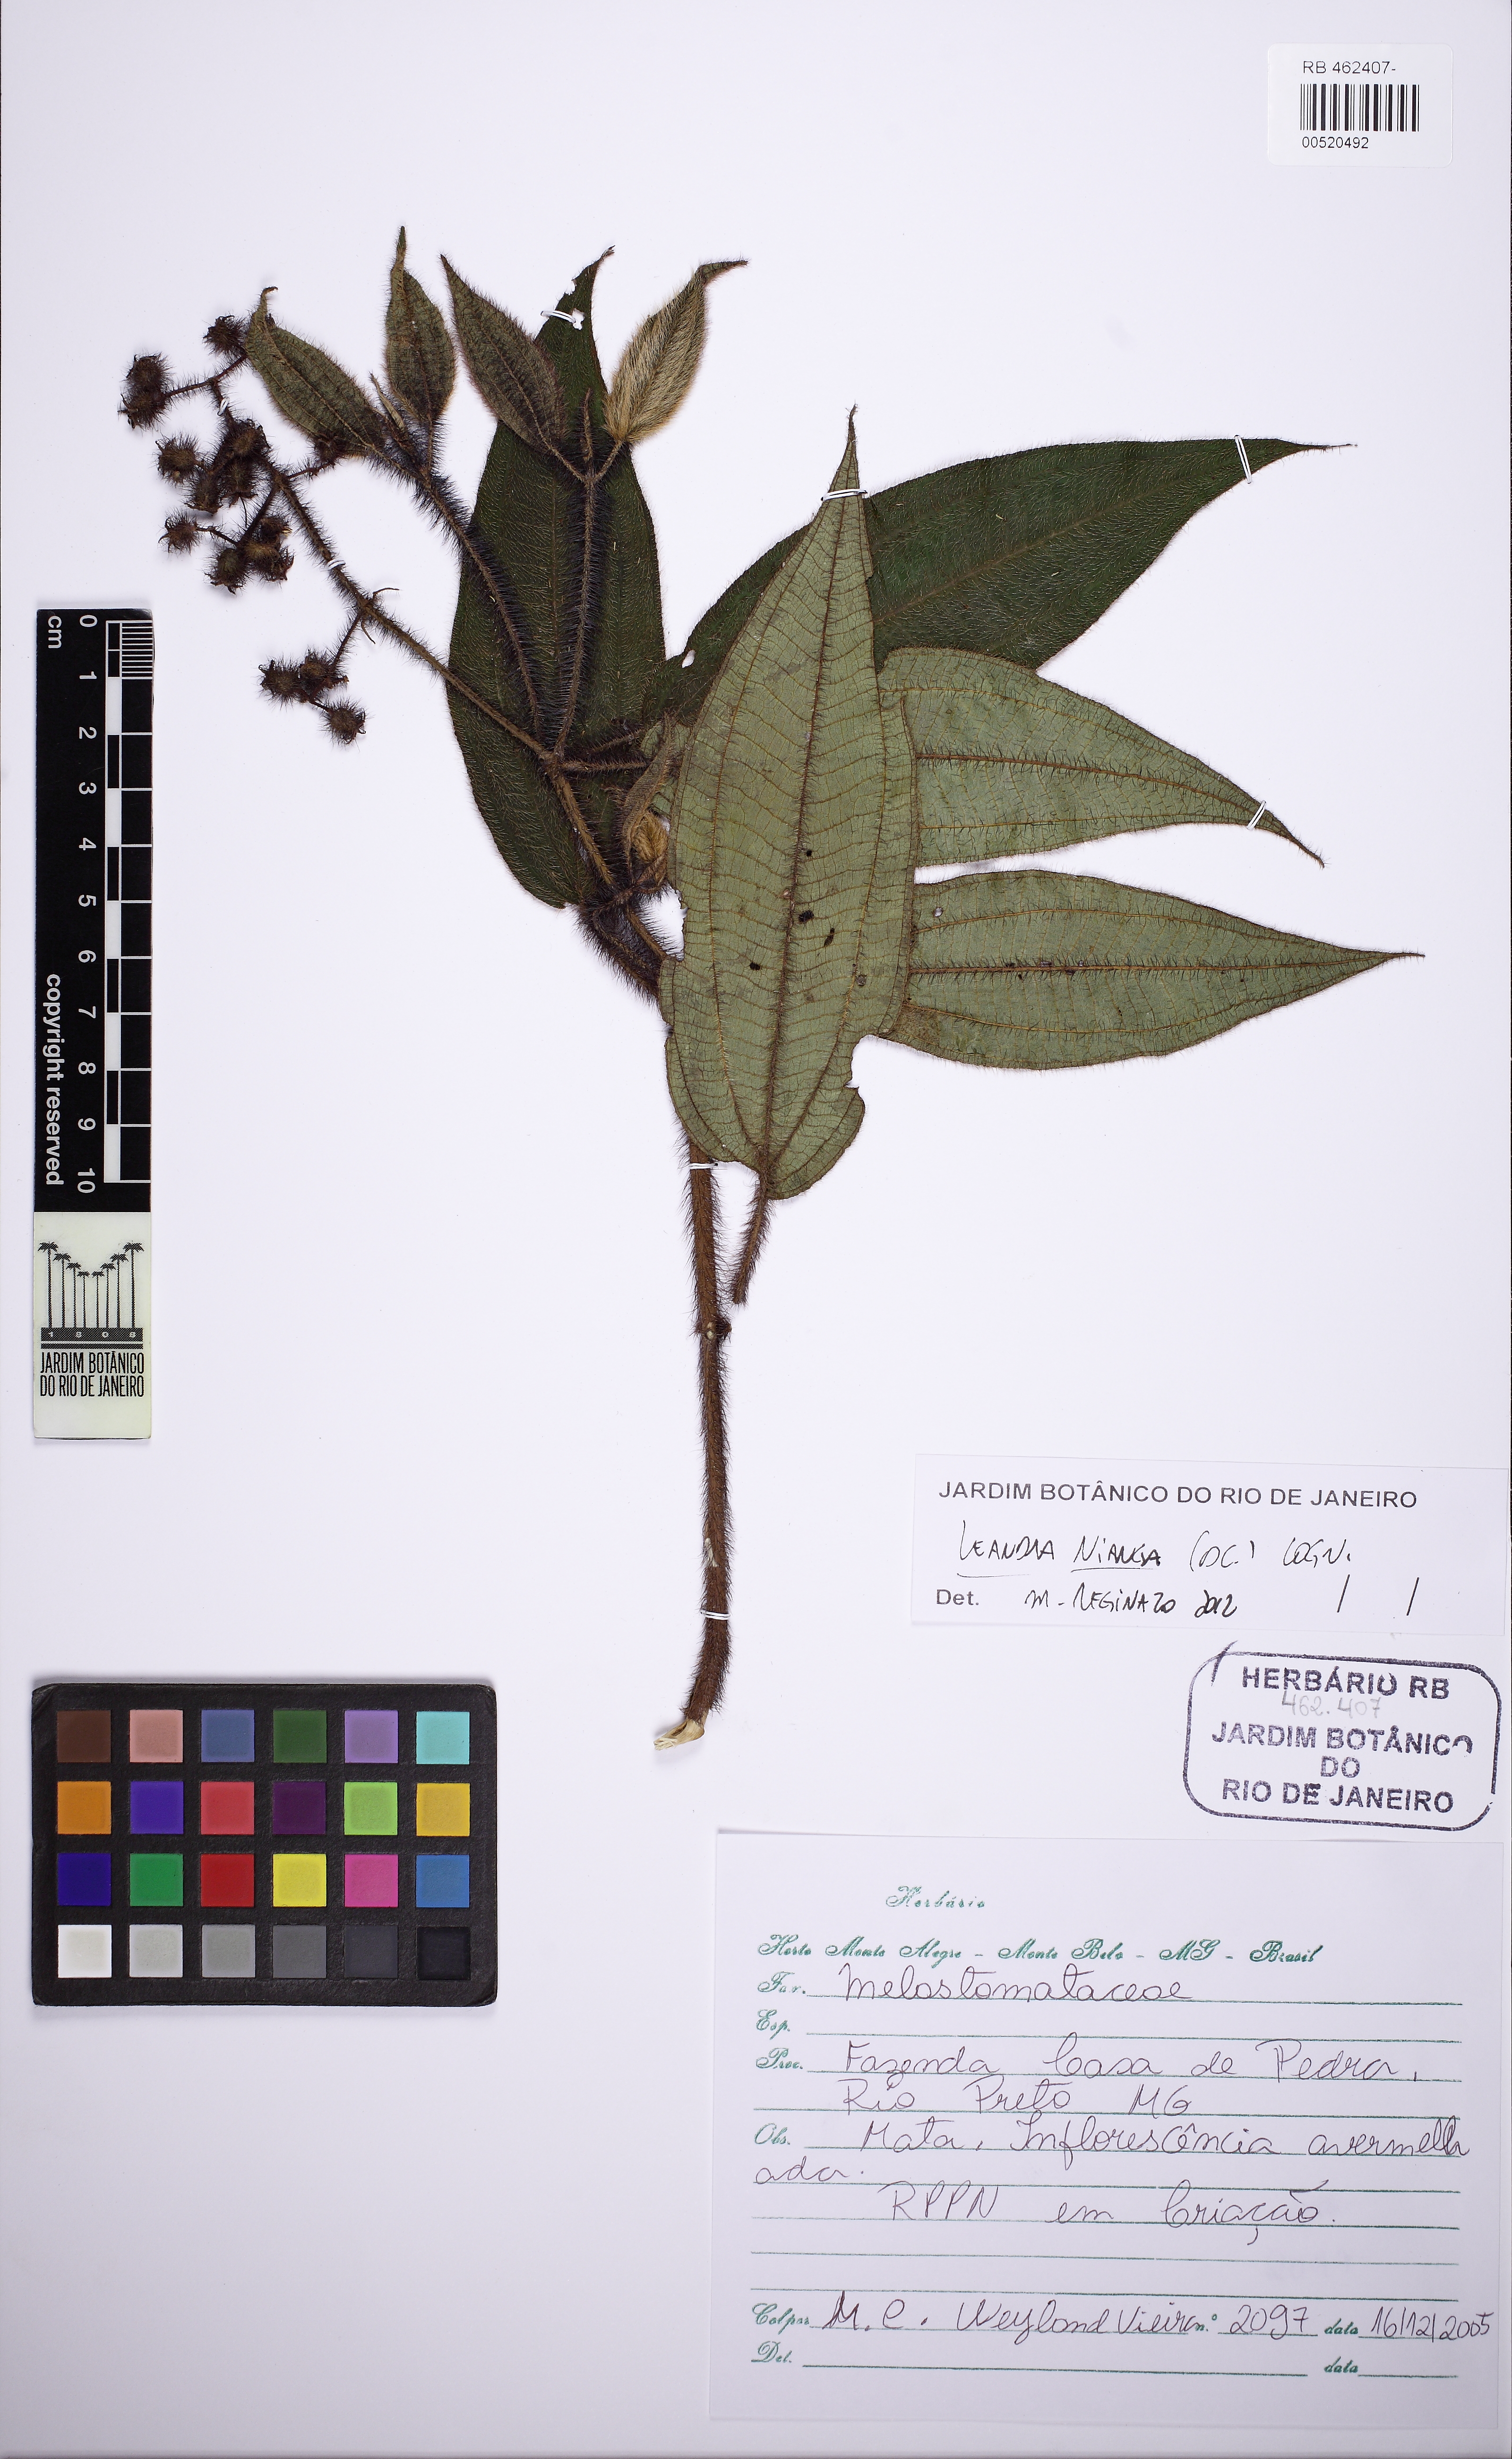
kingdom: Plantae
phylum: Tracheophyta
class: Magnoliopsida
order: Myrtales
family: Melastomataceae
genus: Miconia
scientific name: Miconia nianga
